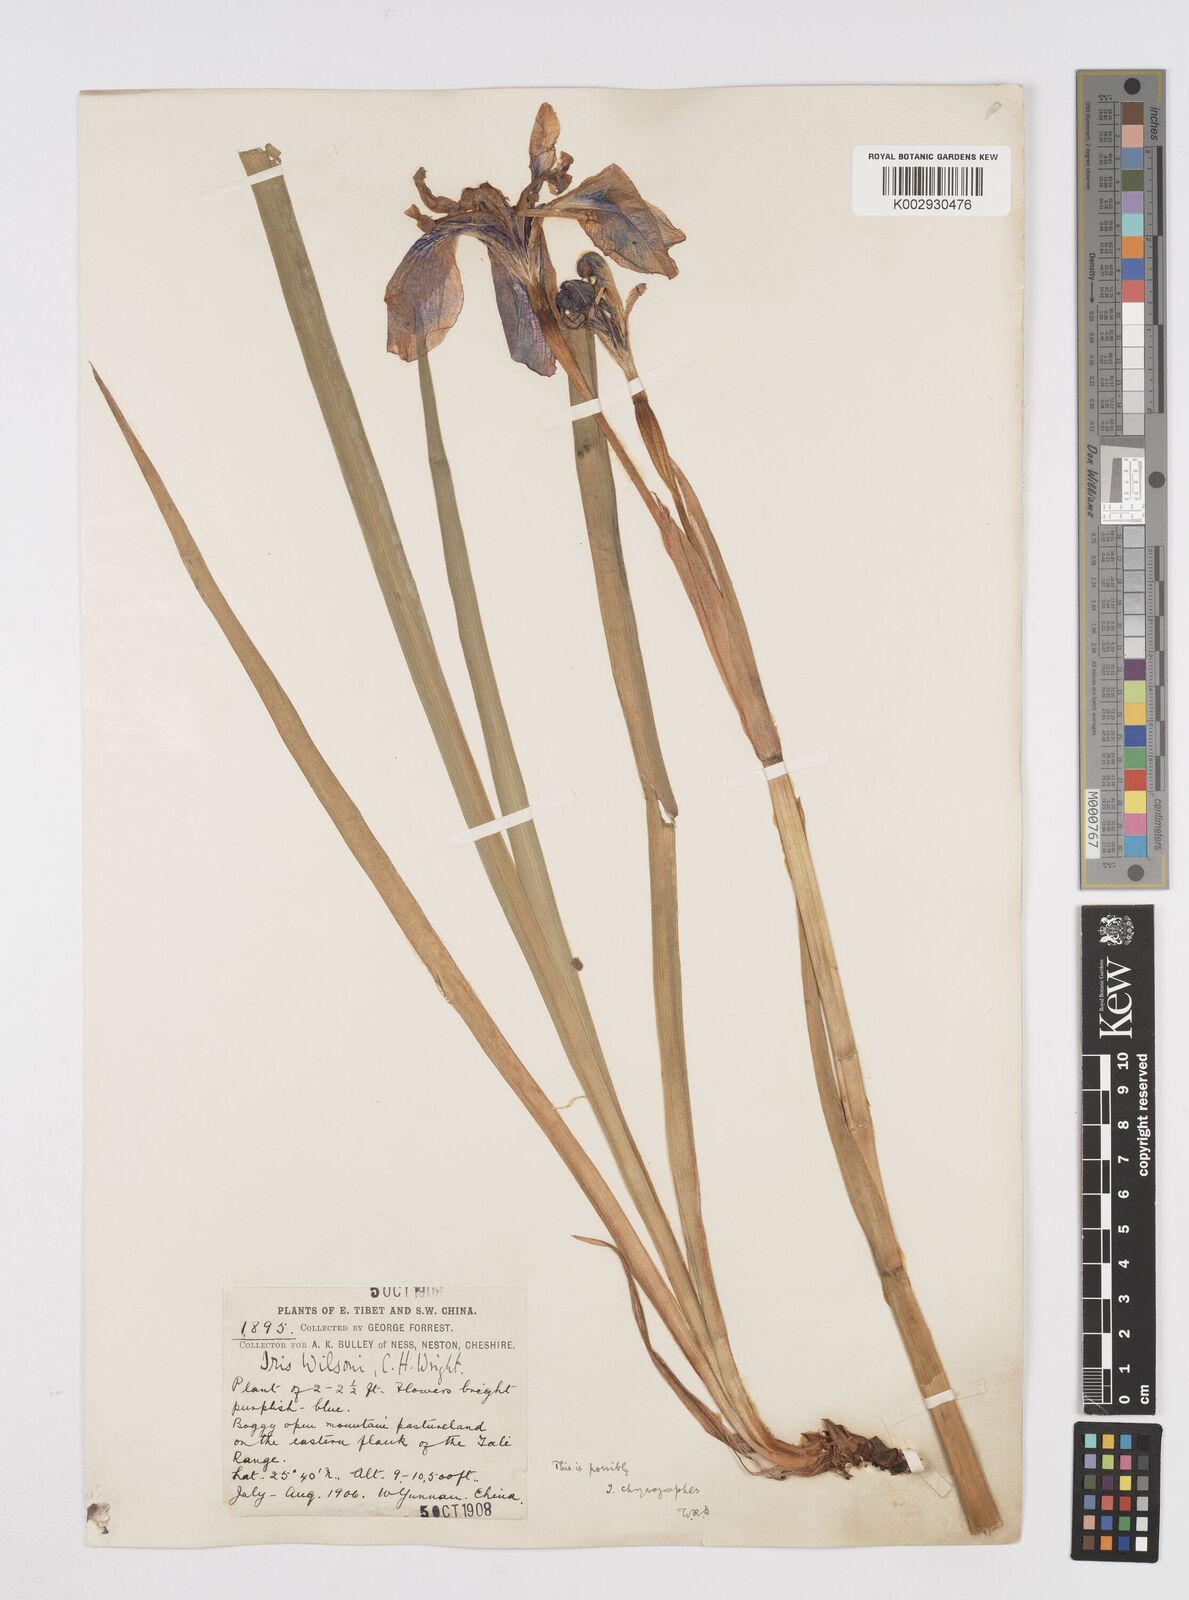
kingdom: Plantae
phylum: Tracheophyta
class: Liliopsida
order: Asparagales
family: Iridaceae
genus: Iris
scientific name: Iris delavayi
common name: Long-scape iris
